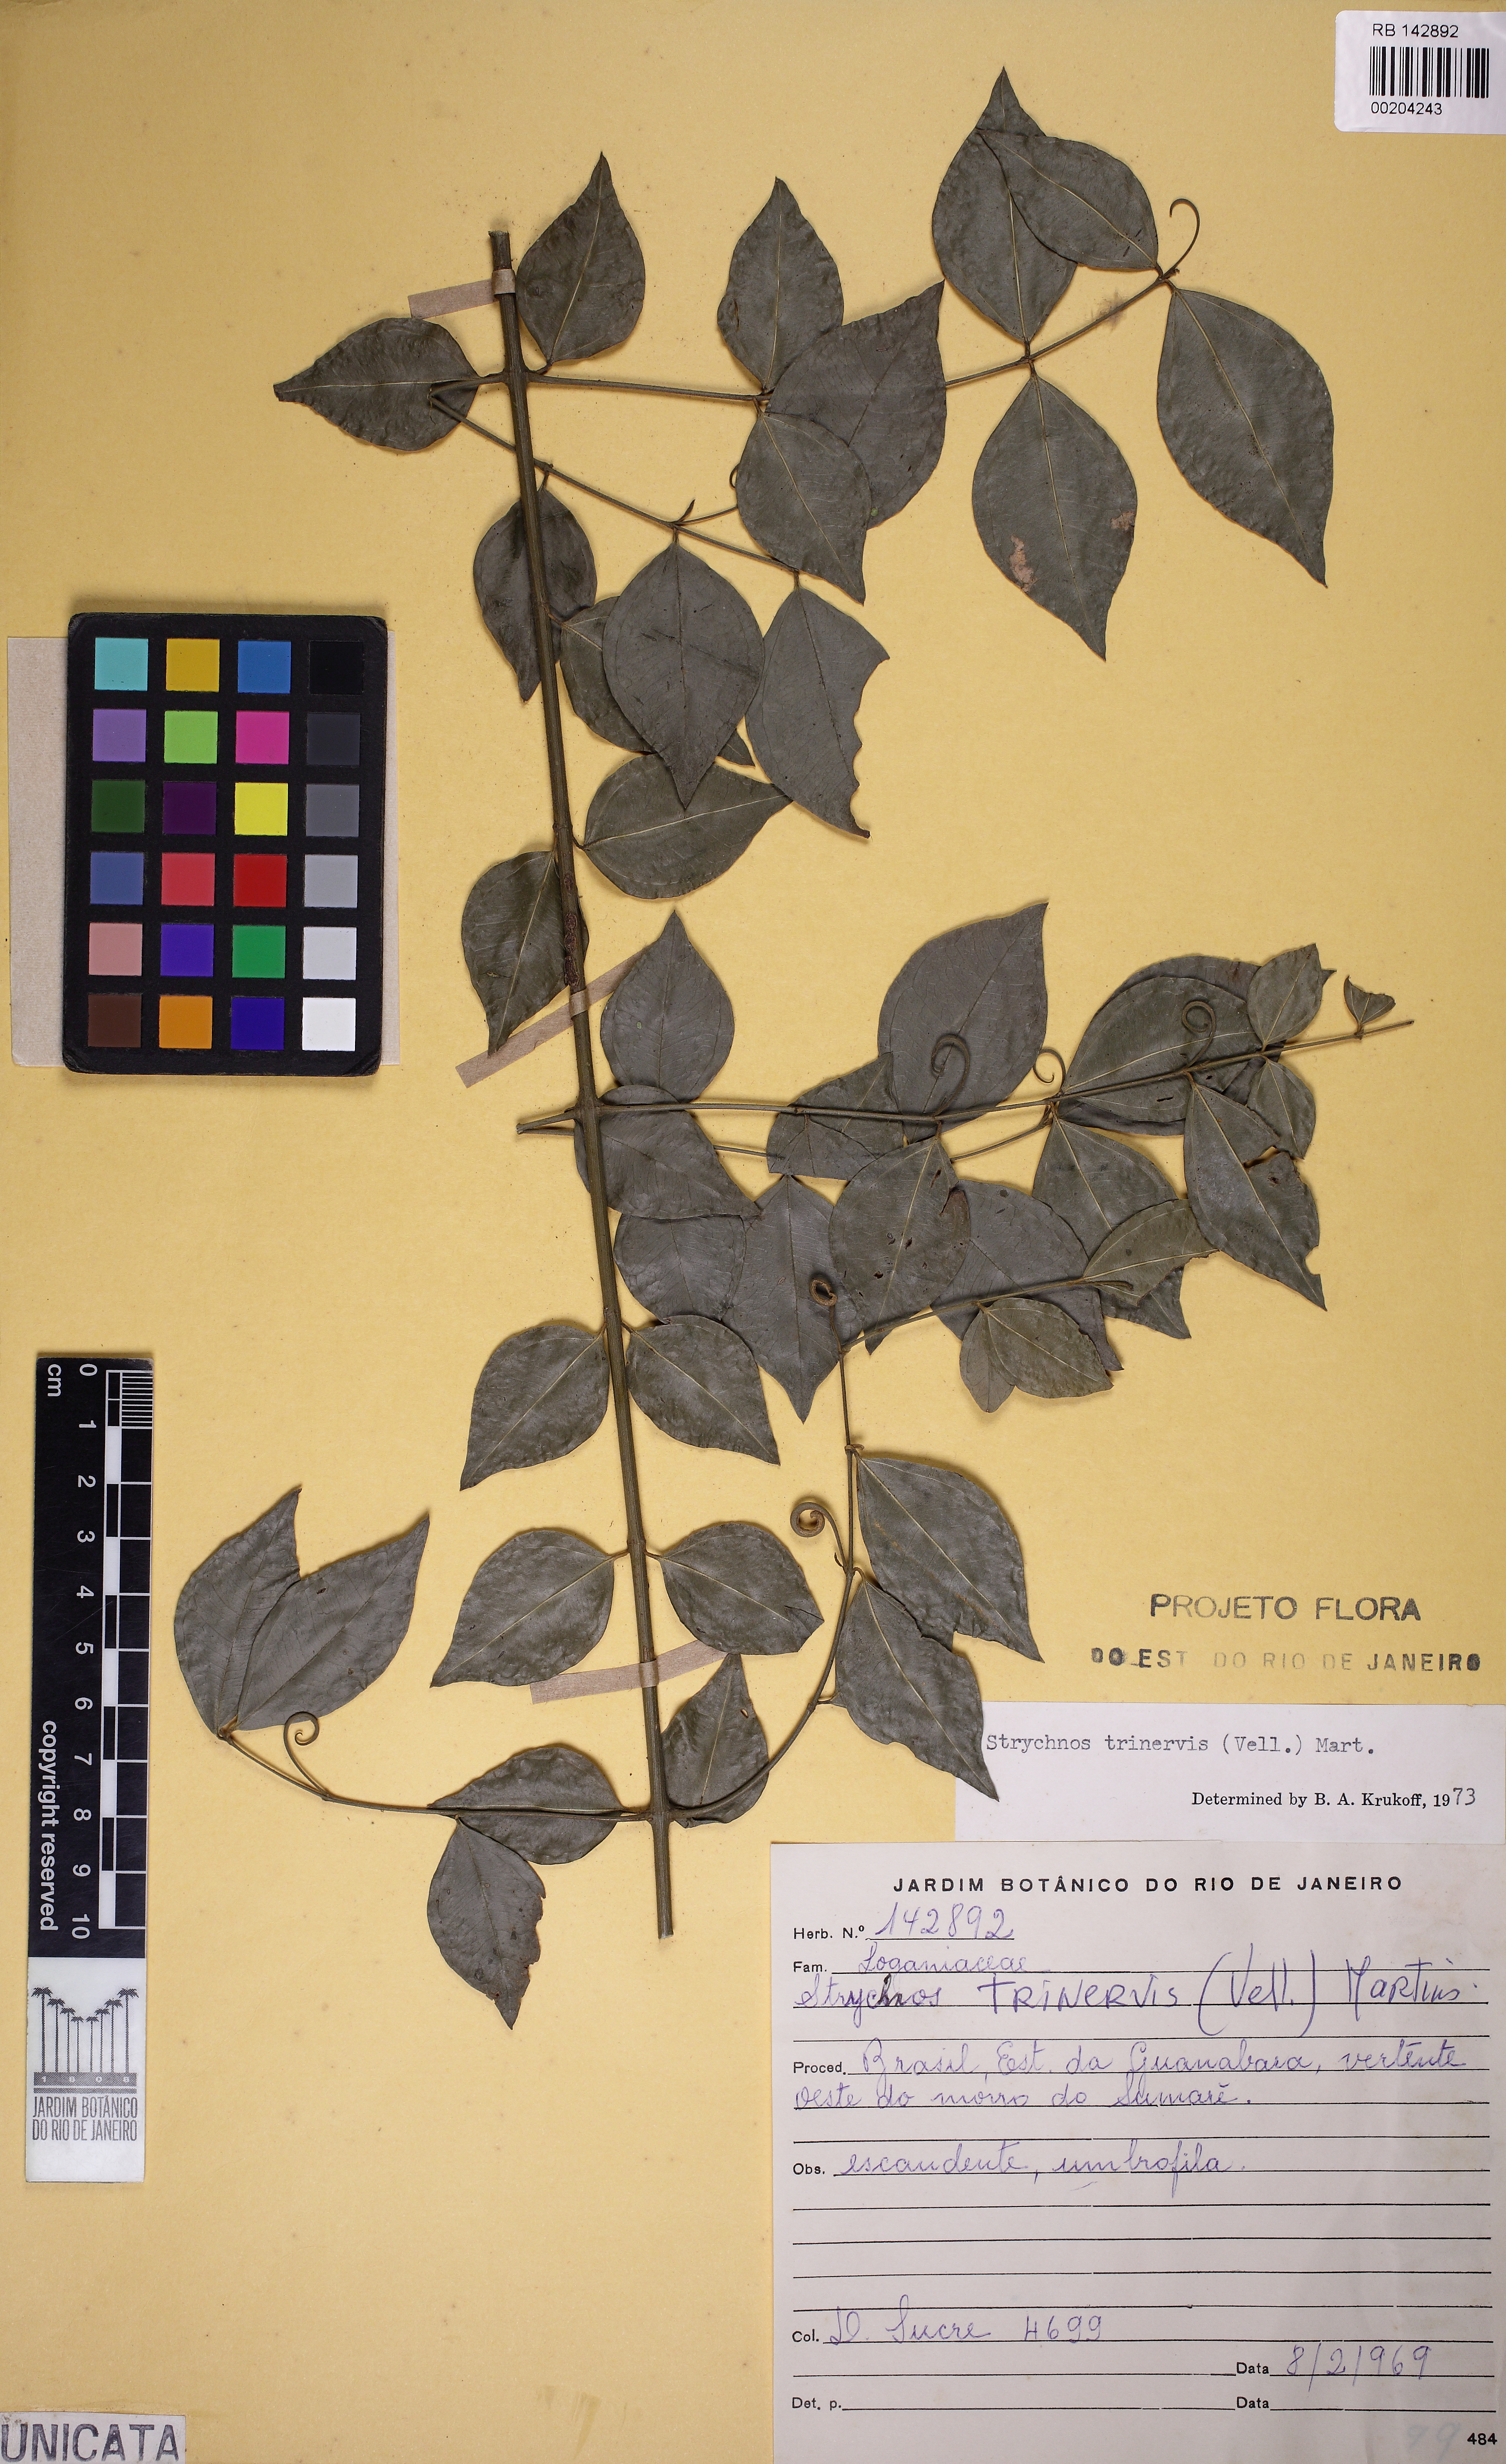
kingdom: Plantae
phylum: Tracheophyta
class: Magnoliopsida
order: Gentianales
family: Loganiaceae
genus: Strychnos
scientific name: Strychnos trinervis
